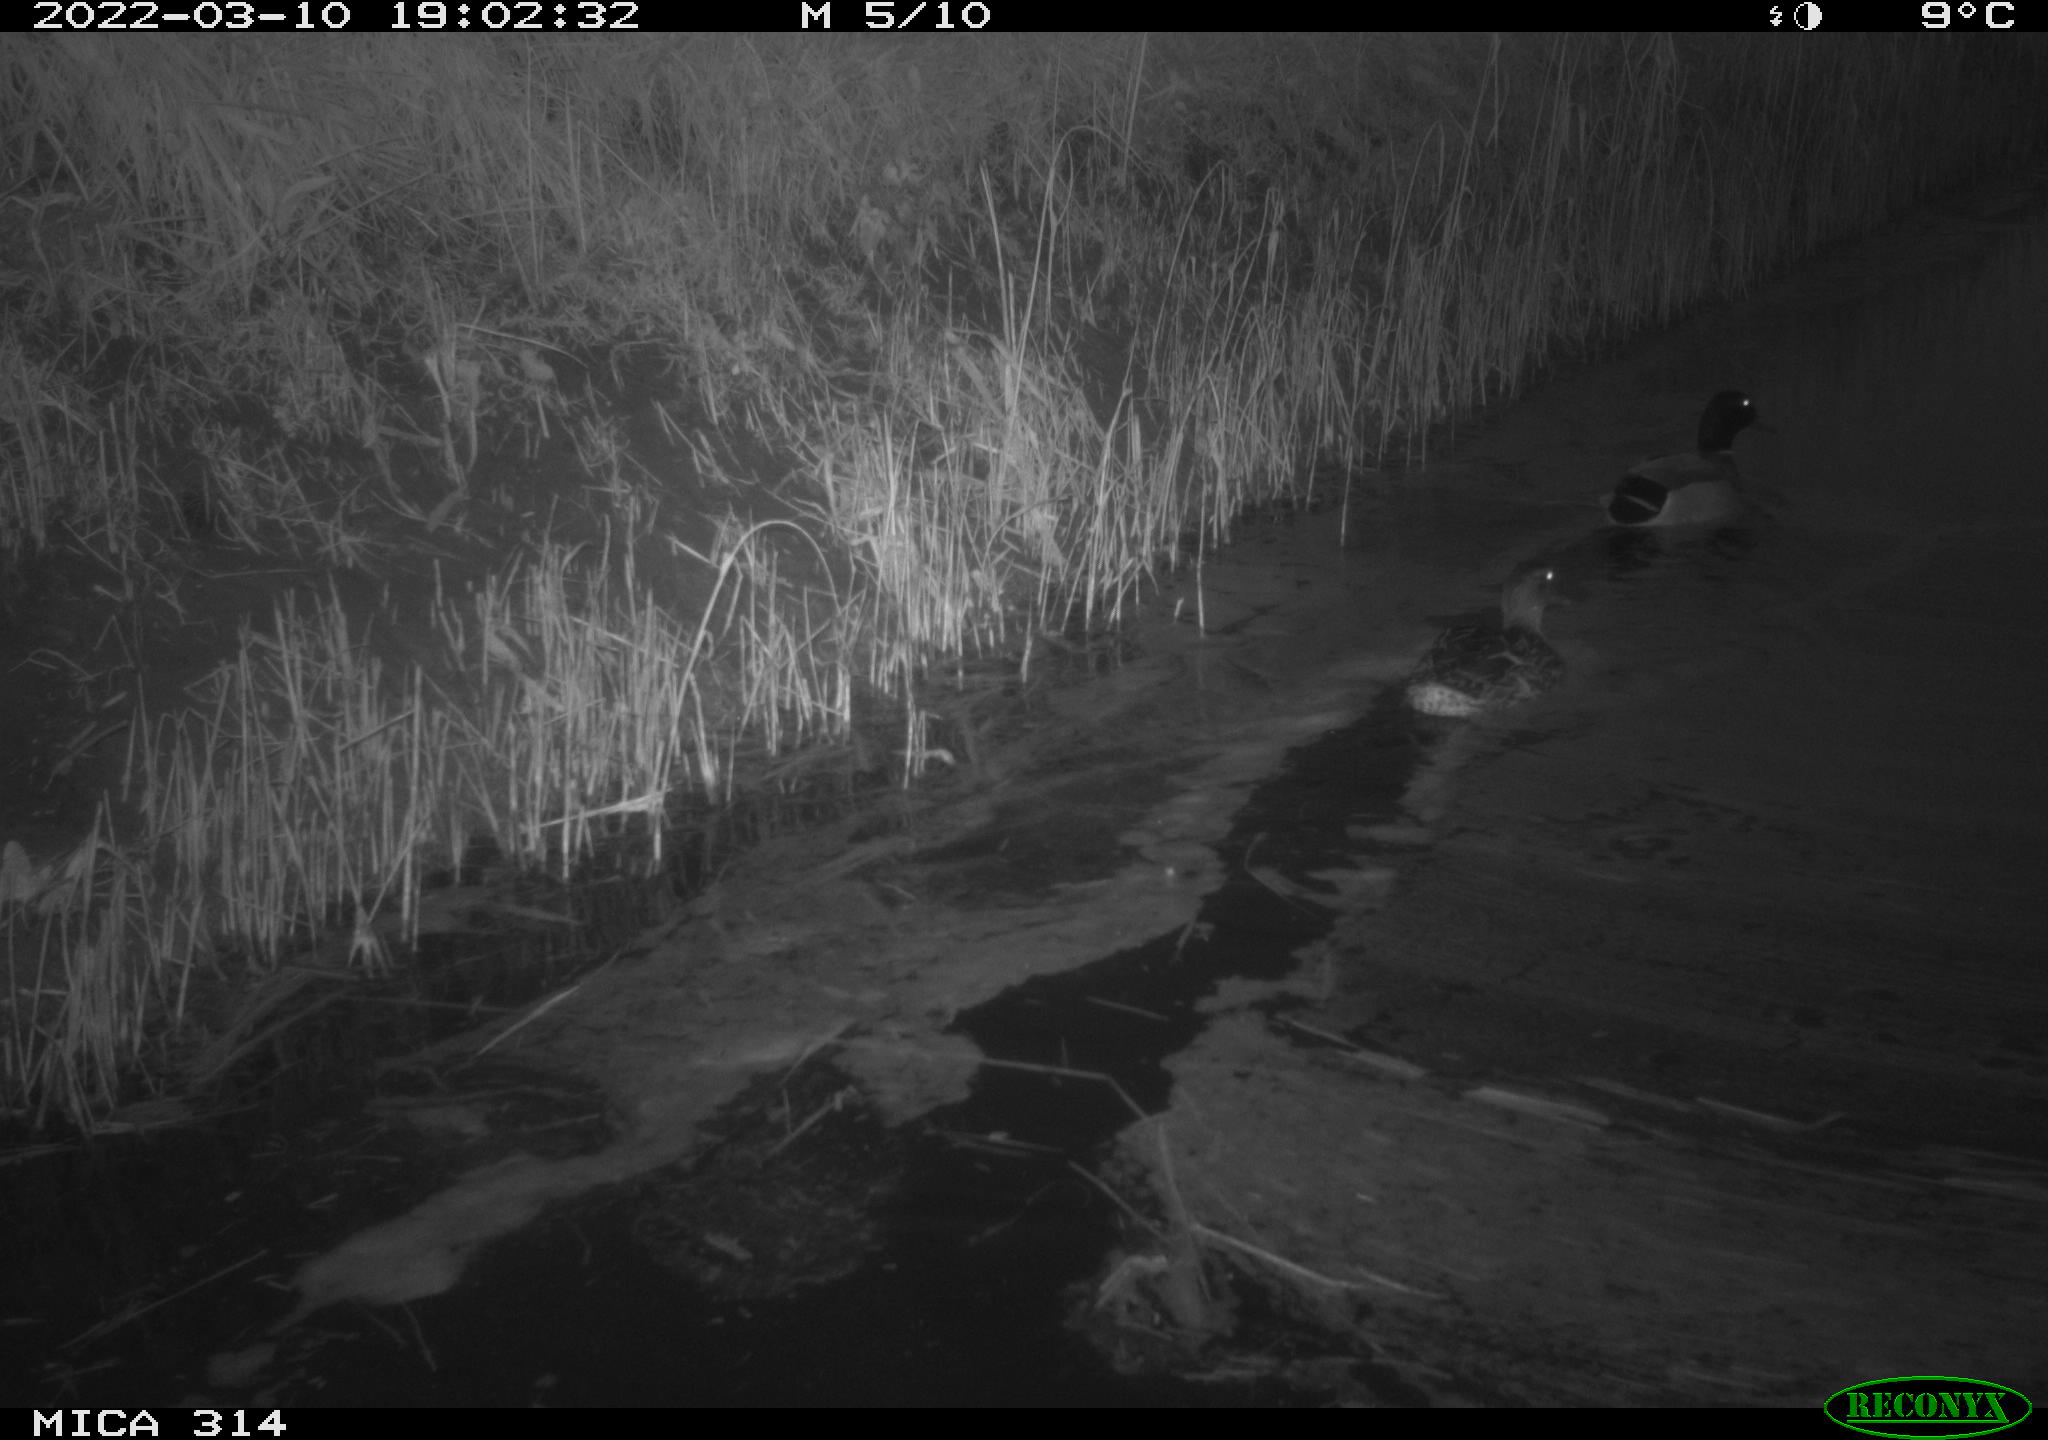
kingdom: Animalia
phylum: Chordata
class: Aves
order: Anseriformes
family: Anatidae
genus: Anas
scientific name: Anas platyrhynchos
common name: Mallard
